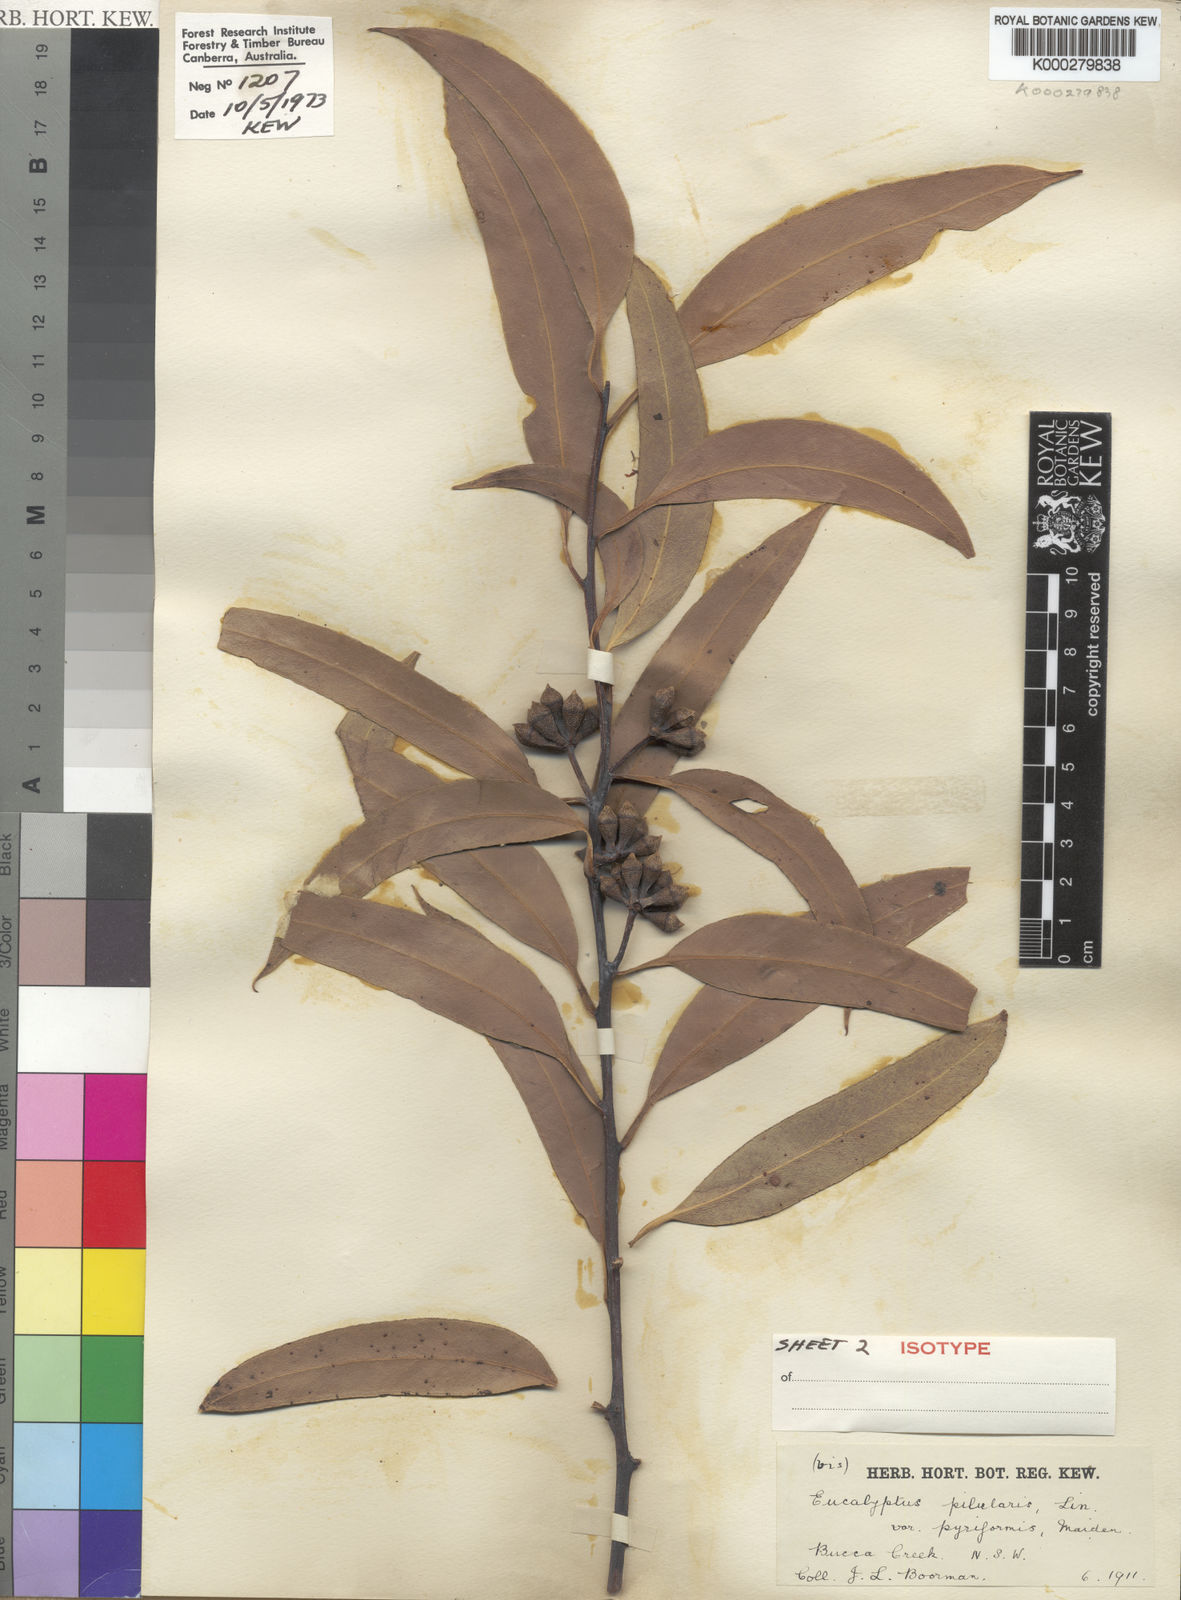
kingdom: Plantae
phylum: Tracheophyta
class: Magnoliopsida
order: Myrtales
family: Myrtaceae
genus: Eucalyptus
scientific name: Eucalyptus pyrocarpa
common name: Large-fruited-blackbutt
